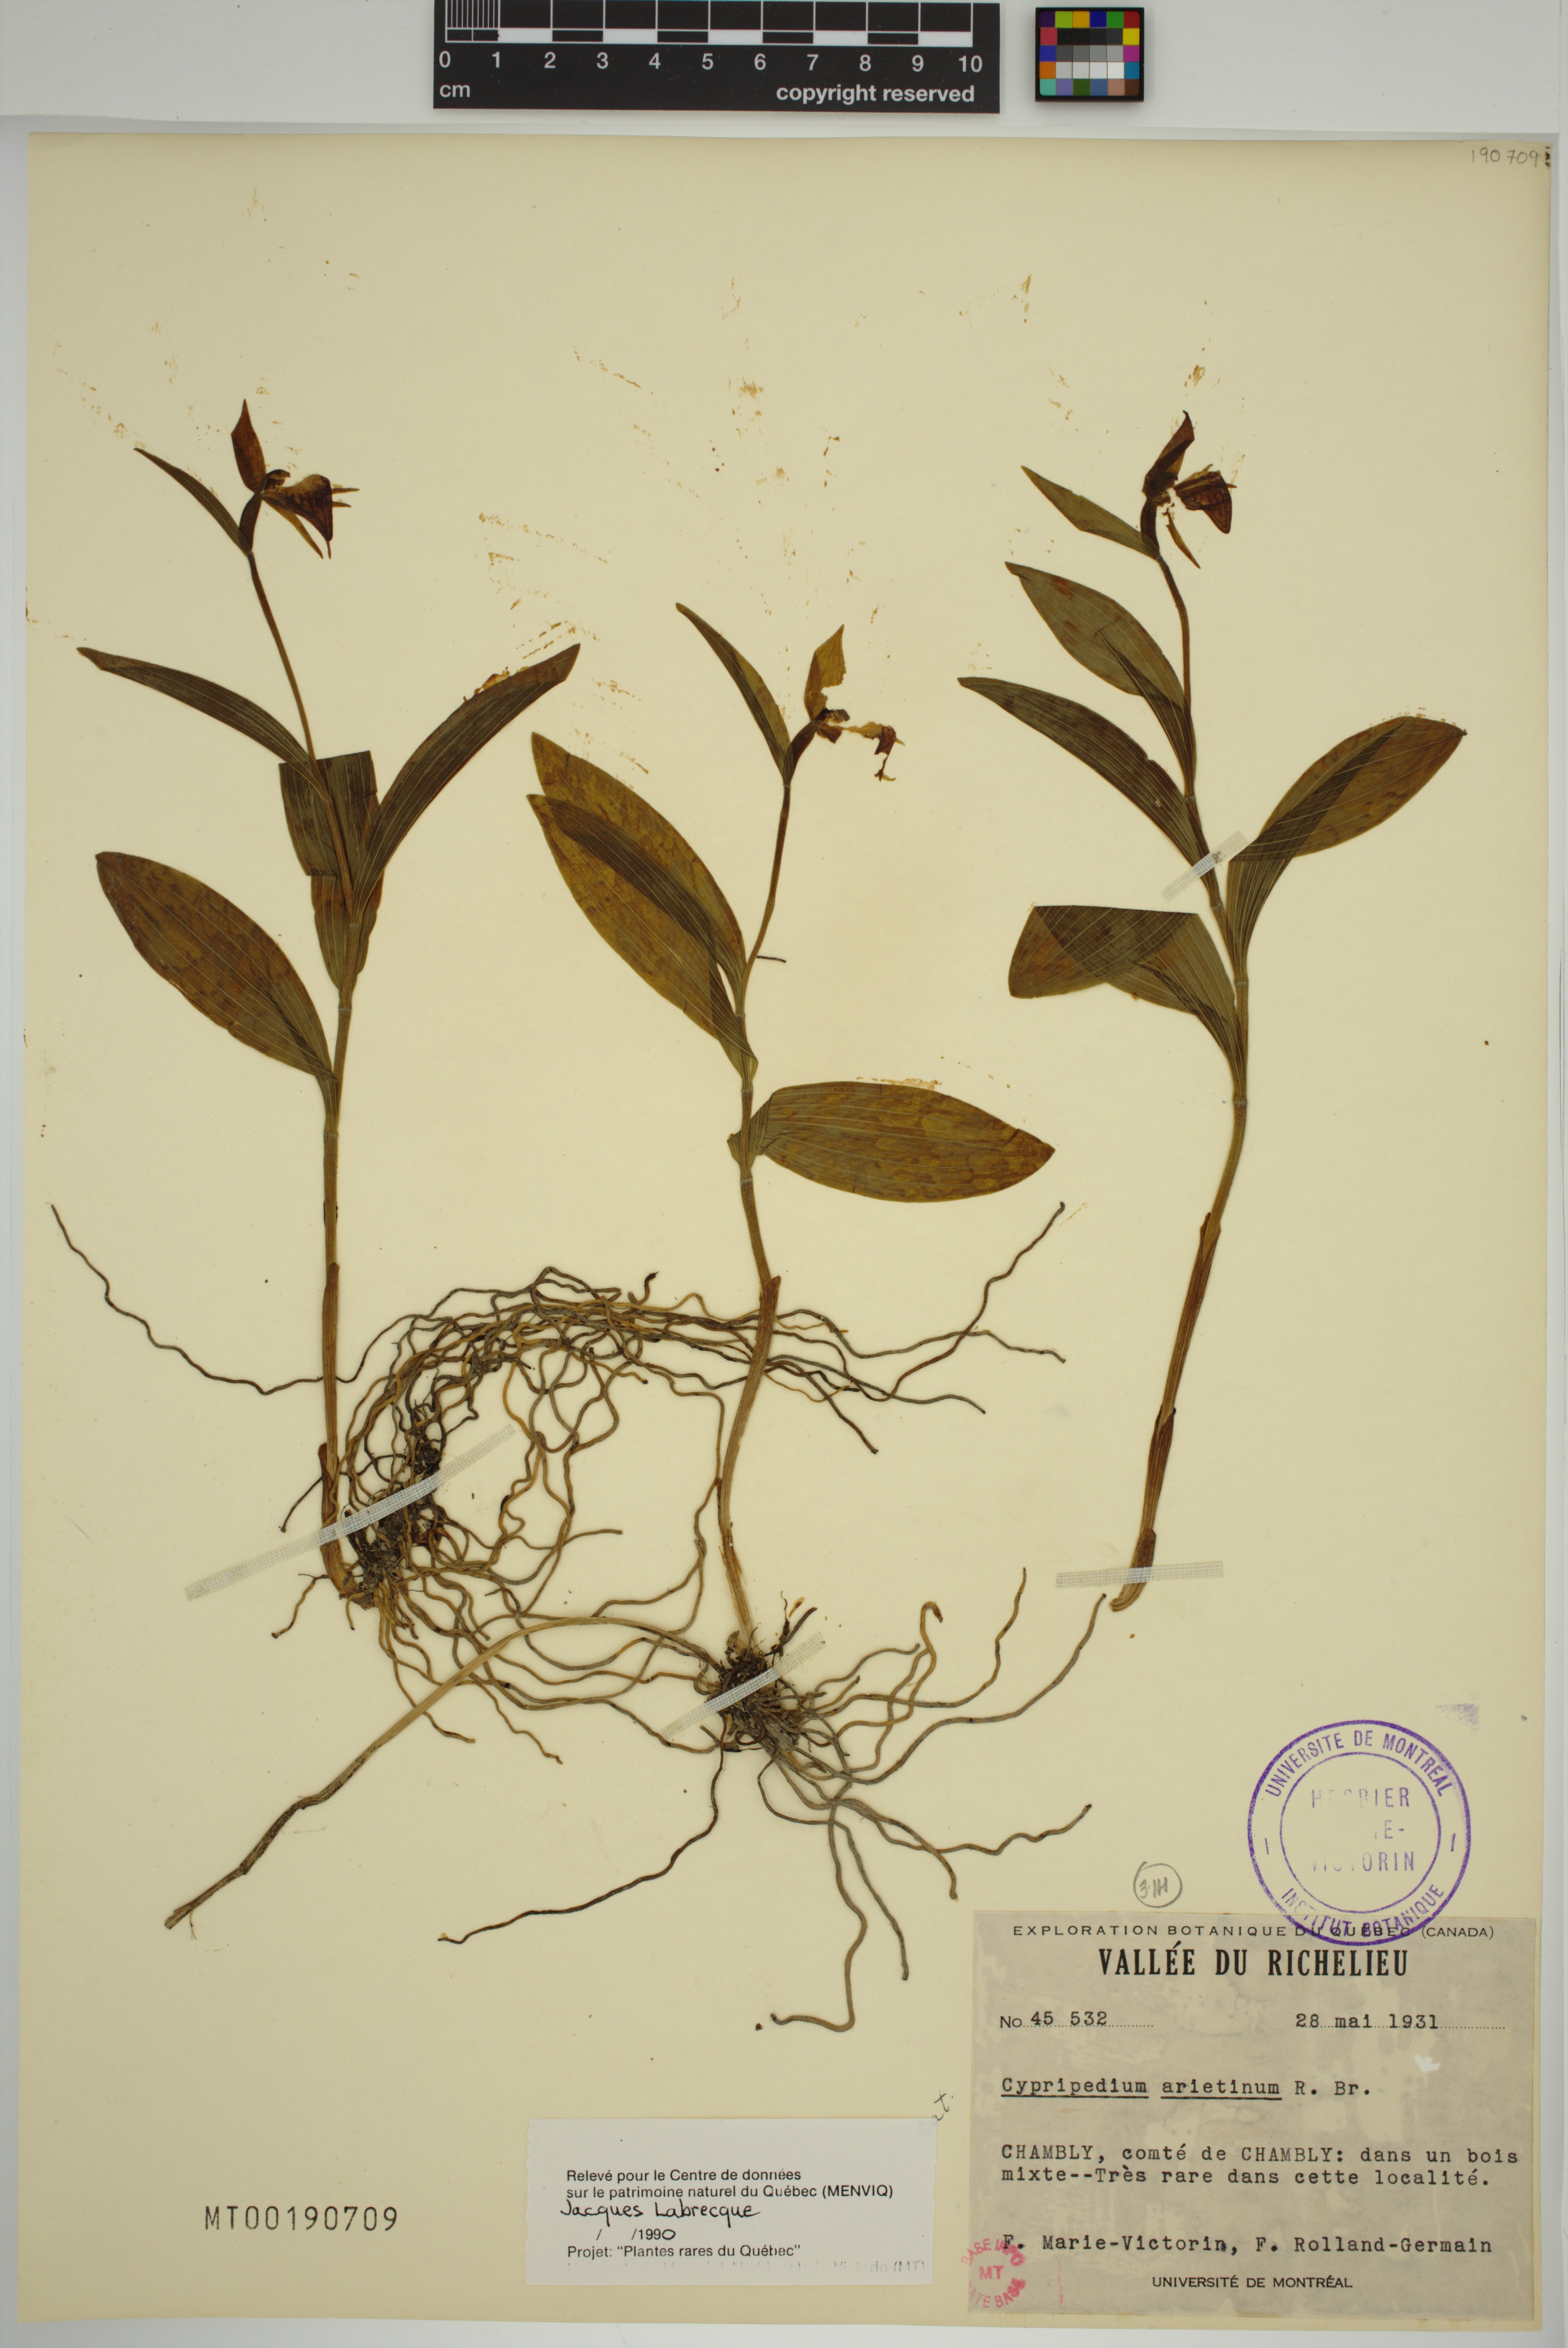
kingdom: Plantae
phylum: Tracheophyta
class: Liliopsida
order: Asparagales
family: Orchidaceae
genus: Cypripedium
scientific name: Cypripedium arietinum
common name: Ram's-head
